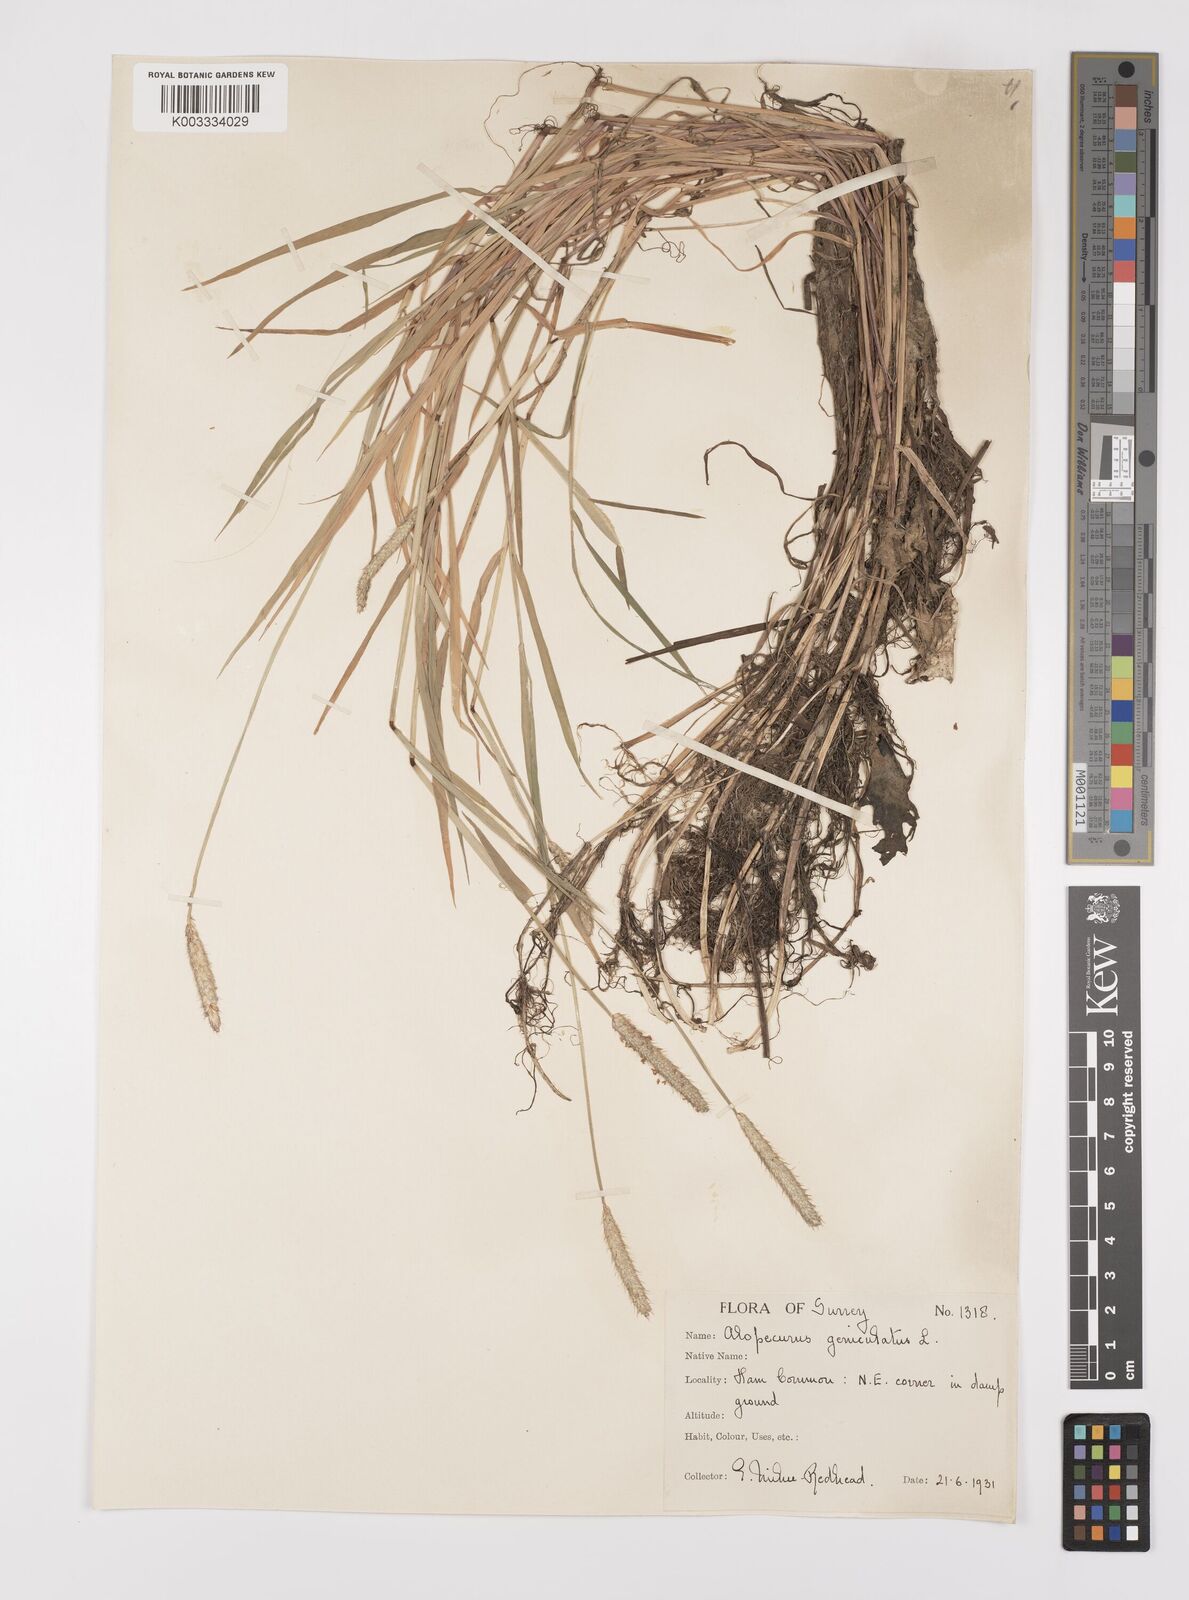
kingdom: Plantae
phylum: Tracheophyta
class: Liliopsida
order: Poales
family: Poaceae
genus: Alopecurus
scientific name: Alopecurus geniculatus
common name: Water foxtail
